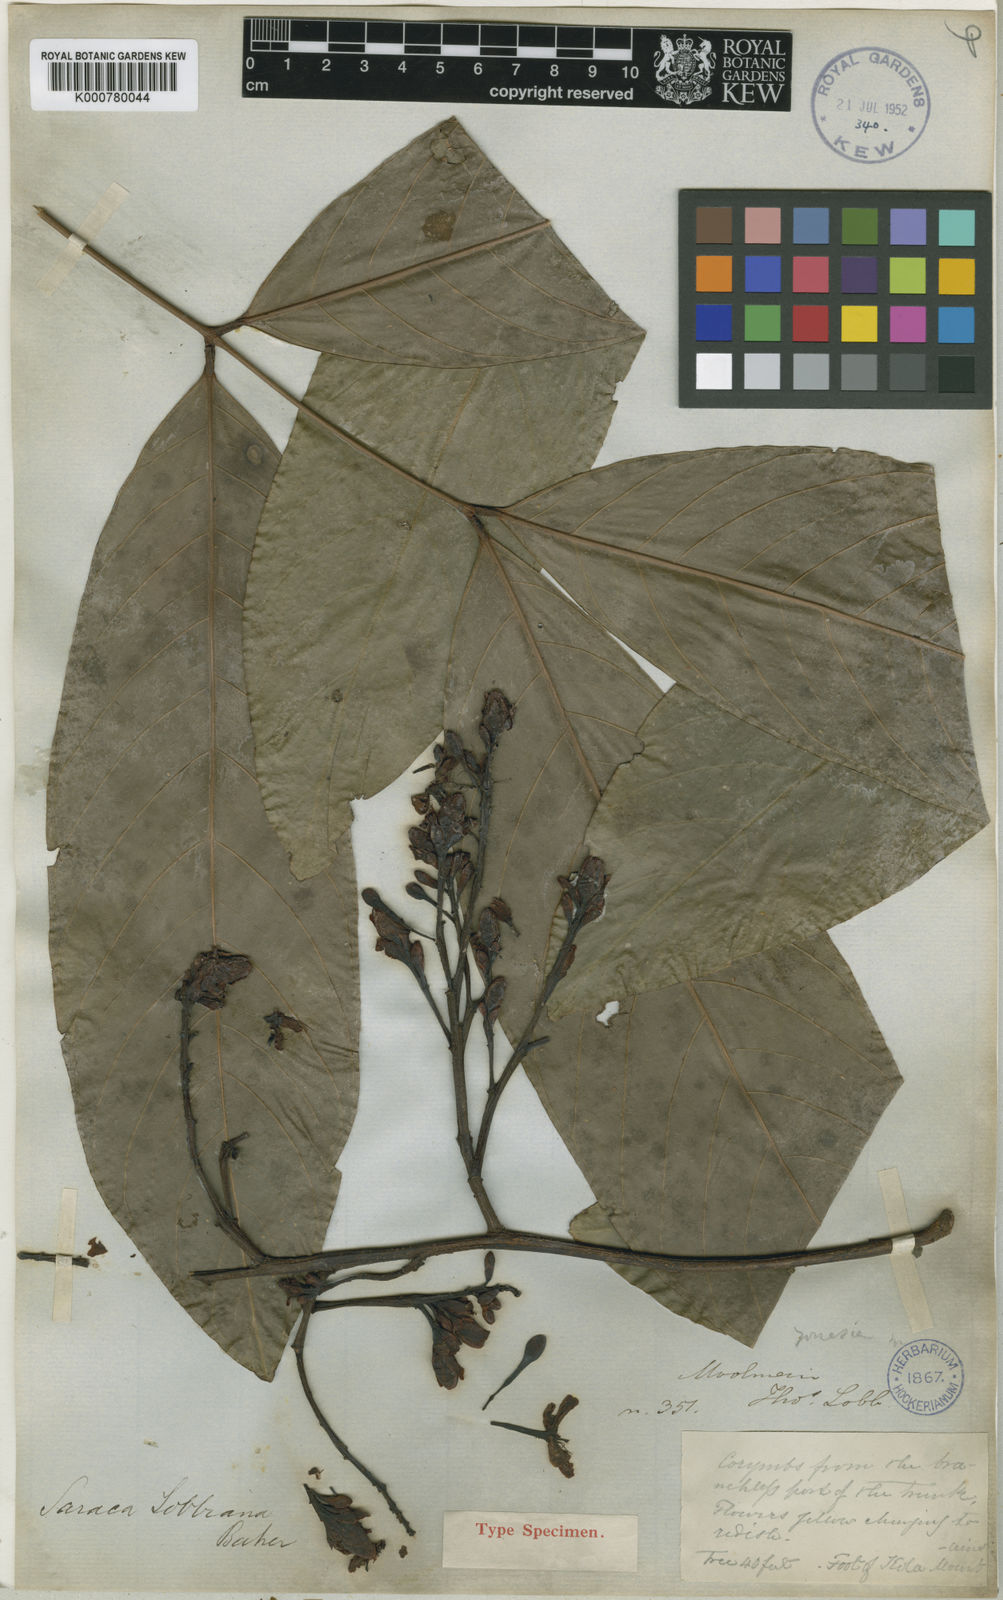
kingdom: Plantae
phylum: Tracheophyta
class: Magnoliopsida
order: Fabales
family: Fabaceae
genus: Saraca
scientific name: Saraca indica
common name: Asoka-tree
